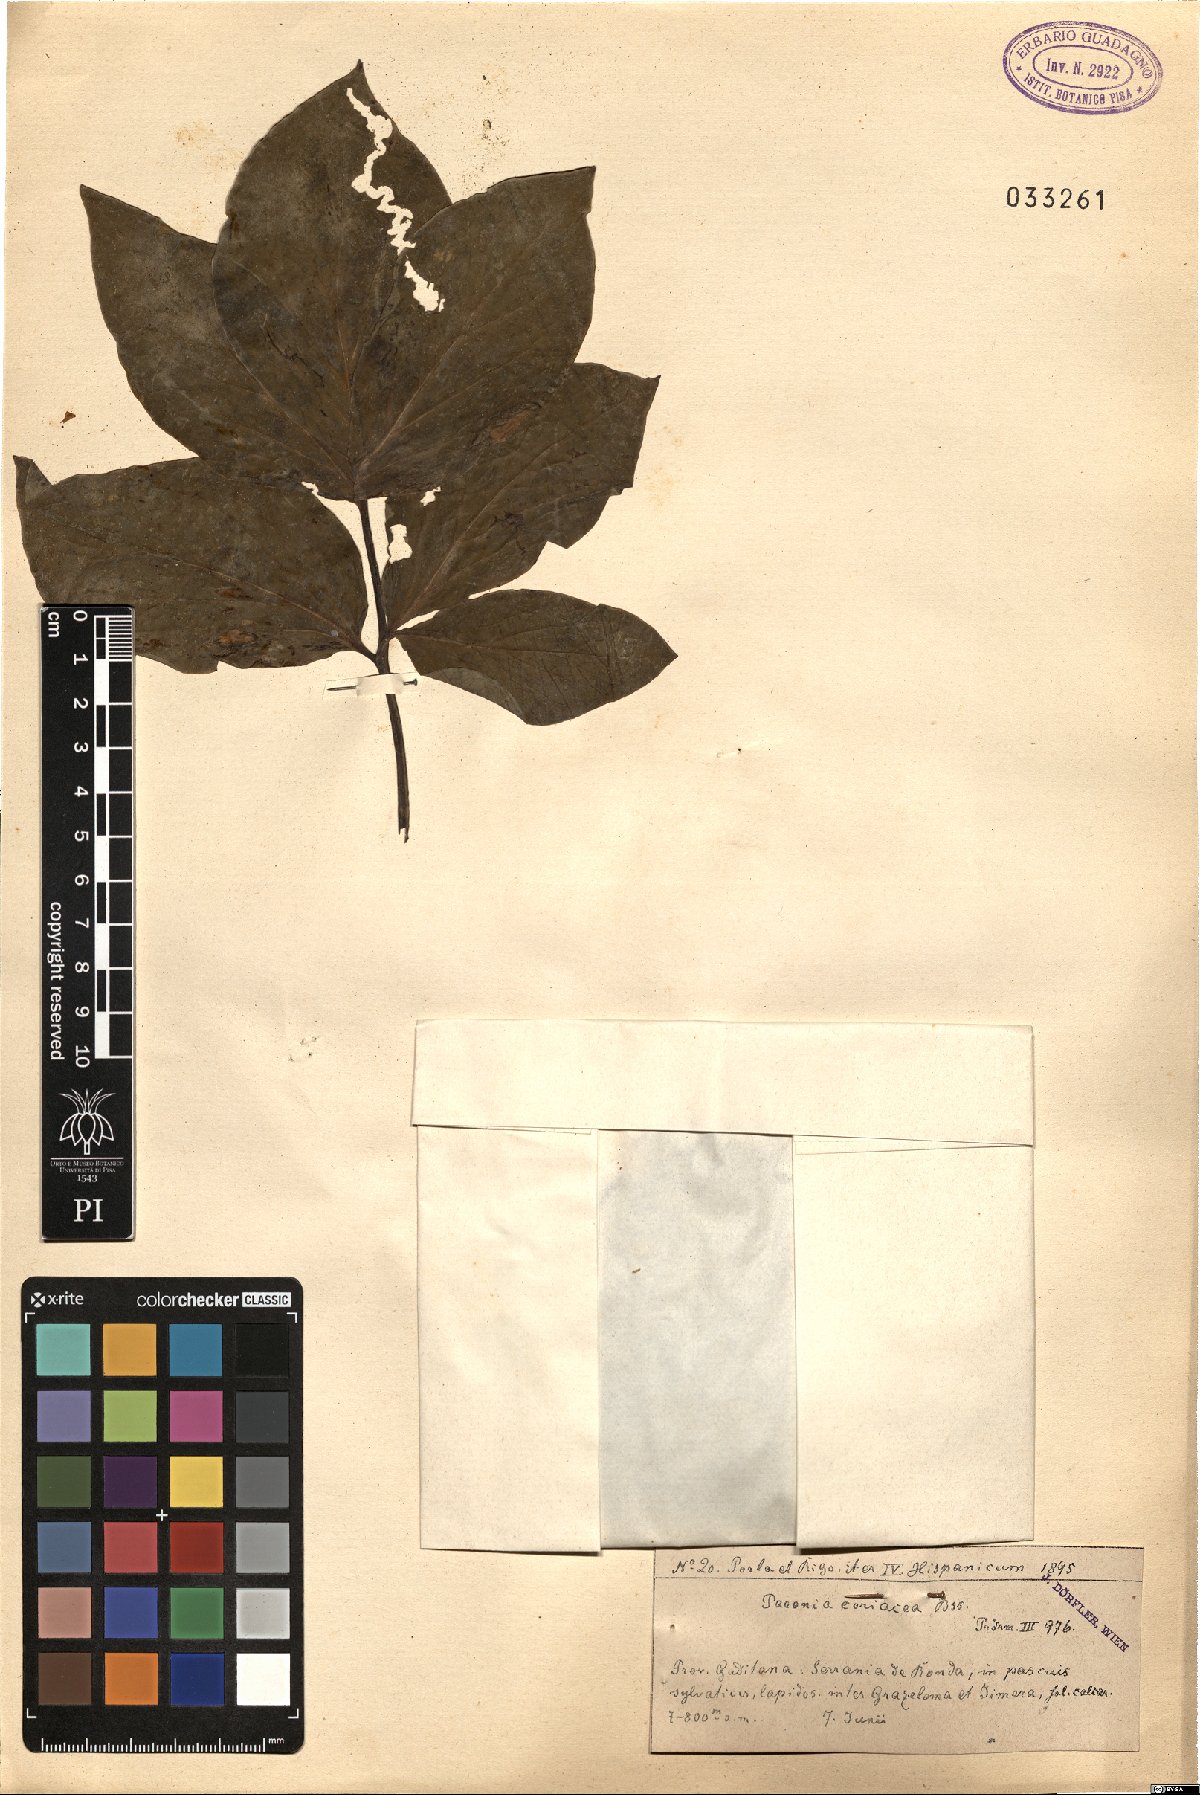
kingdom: Plantae
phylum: Tracheophyta
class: Magnoliopsida
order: Saxifragales
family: Paeoniaceae
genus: Paeonia
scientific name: Paeonia coriacea
